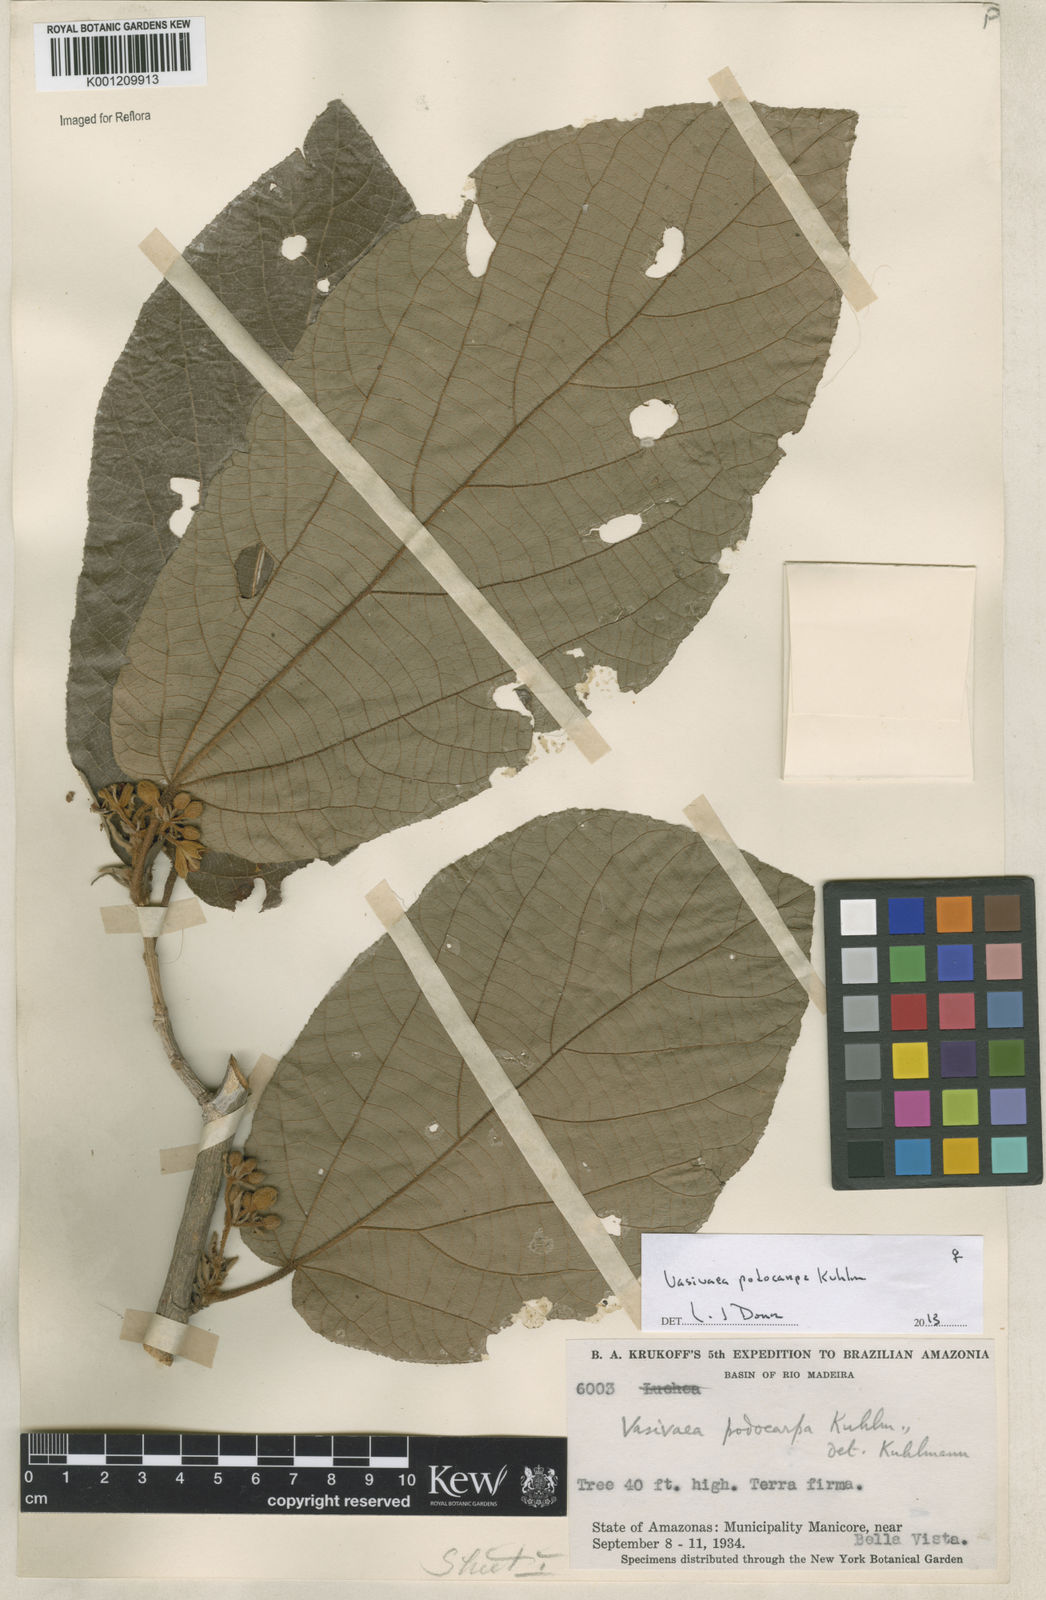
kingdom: Plantae
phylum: Tracheophyta
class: Magnoliopsida
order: Malvales
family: Malvaceae
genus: Vasivaea
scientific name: Vasivaea podocarpa
